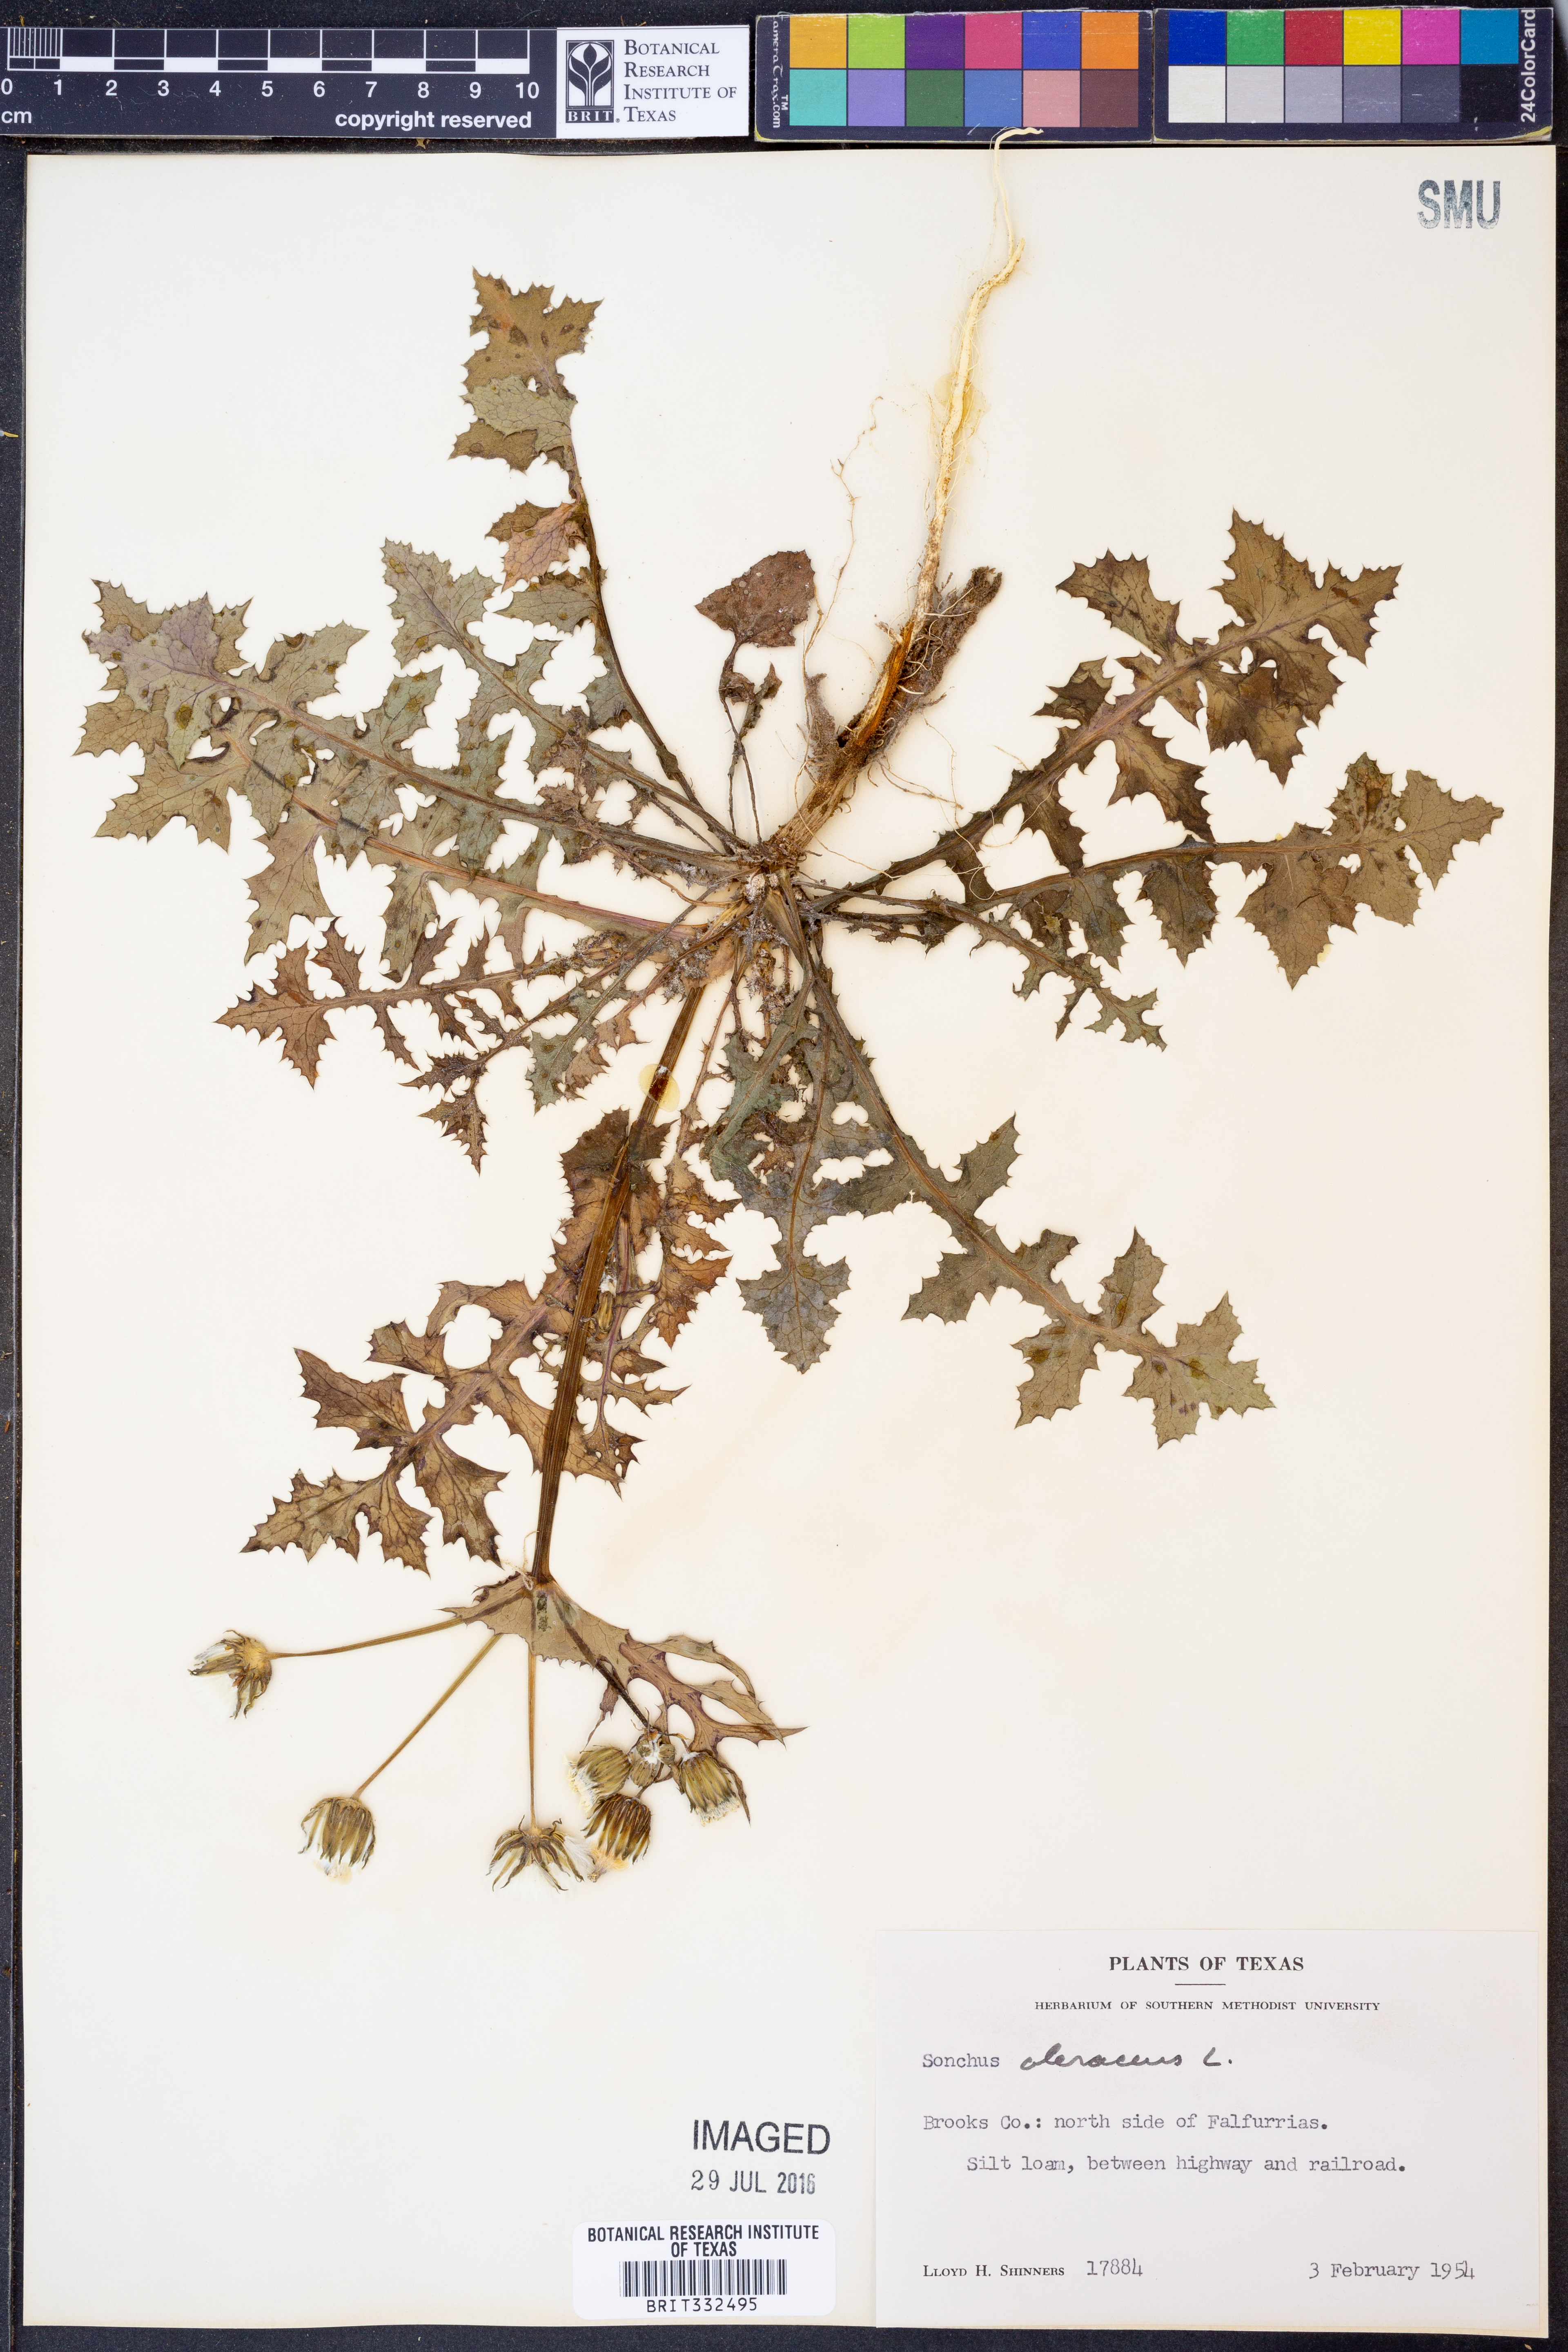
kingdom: Plantae
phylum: Tracheophyta
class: Magnoliopsida
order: Asterales
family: Asteraceae
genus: Sonchus
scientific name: Sonchus oleraceus
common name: Common sowthistle
